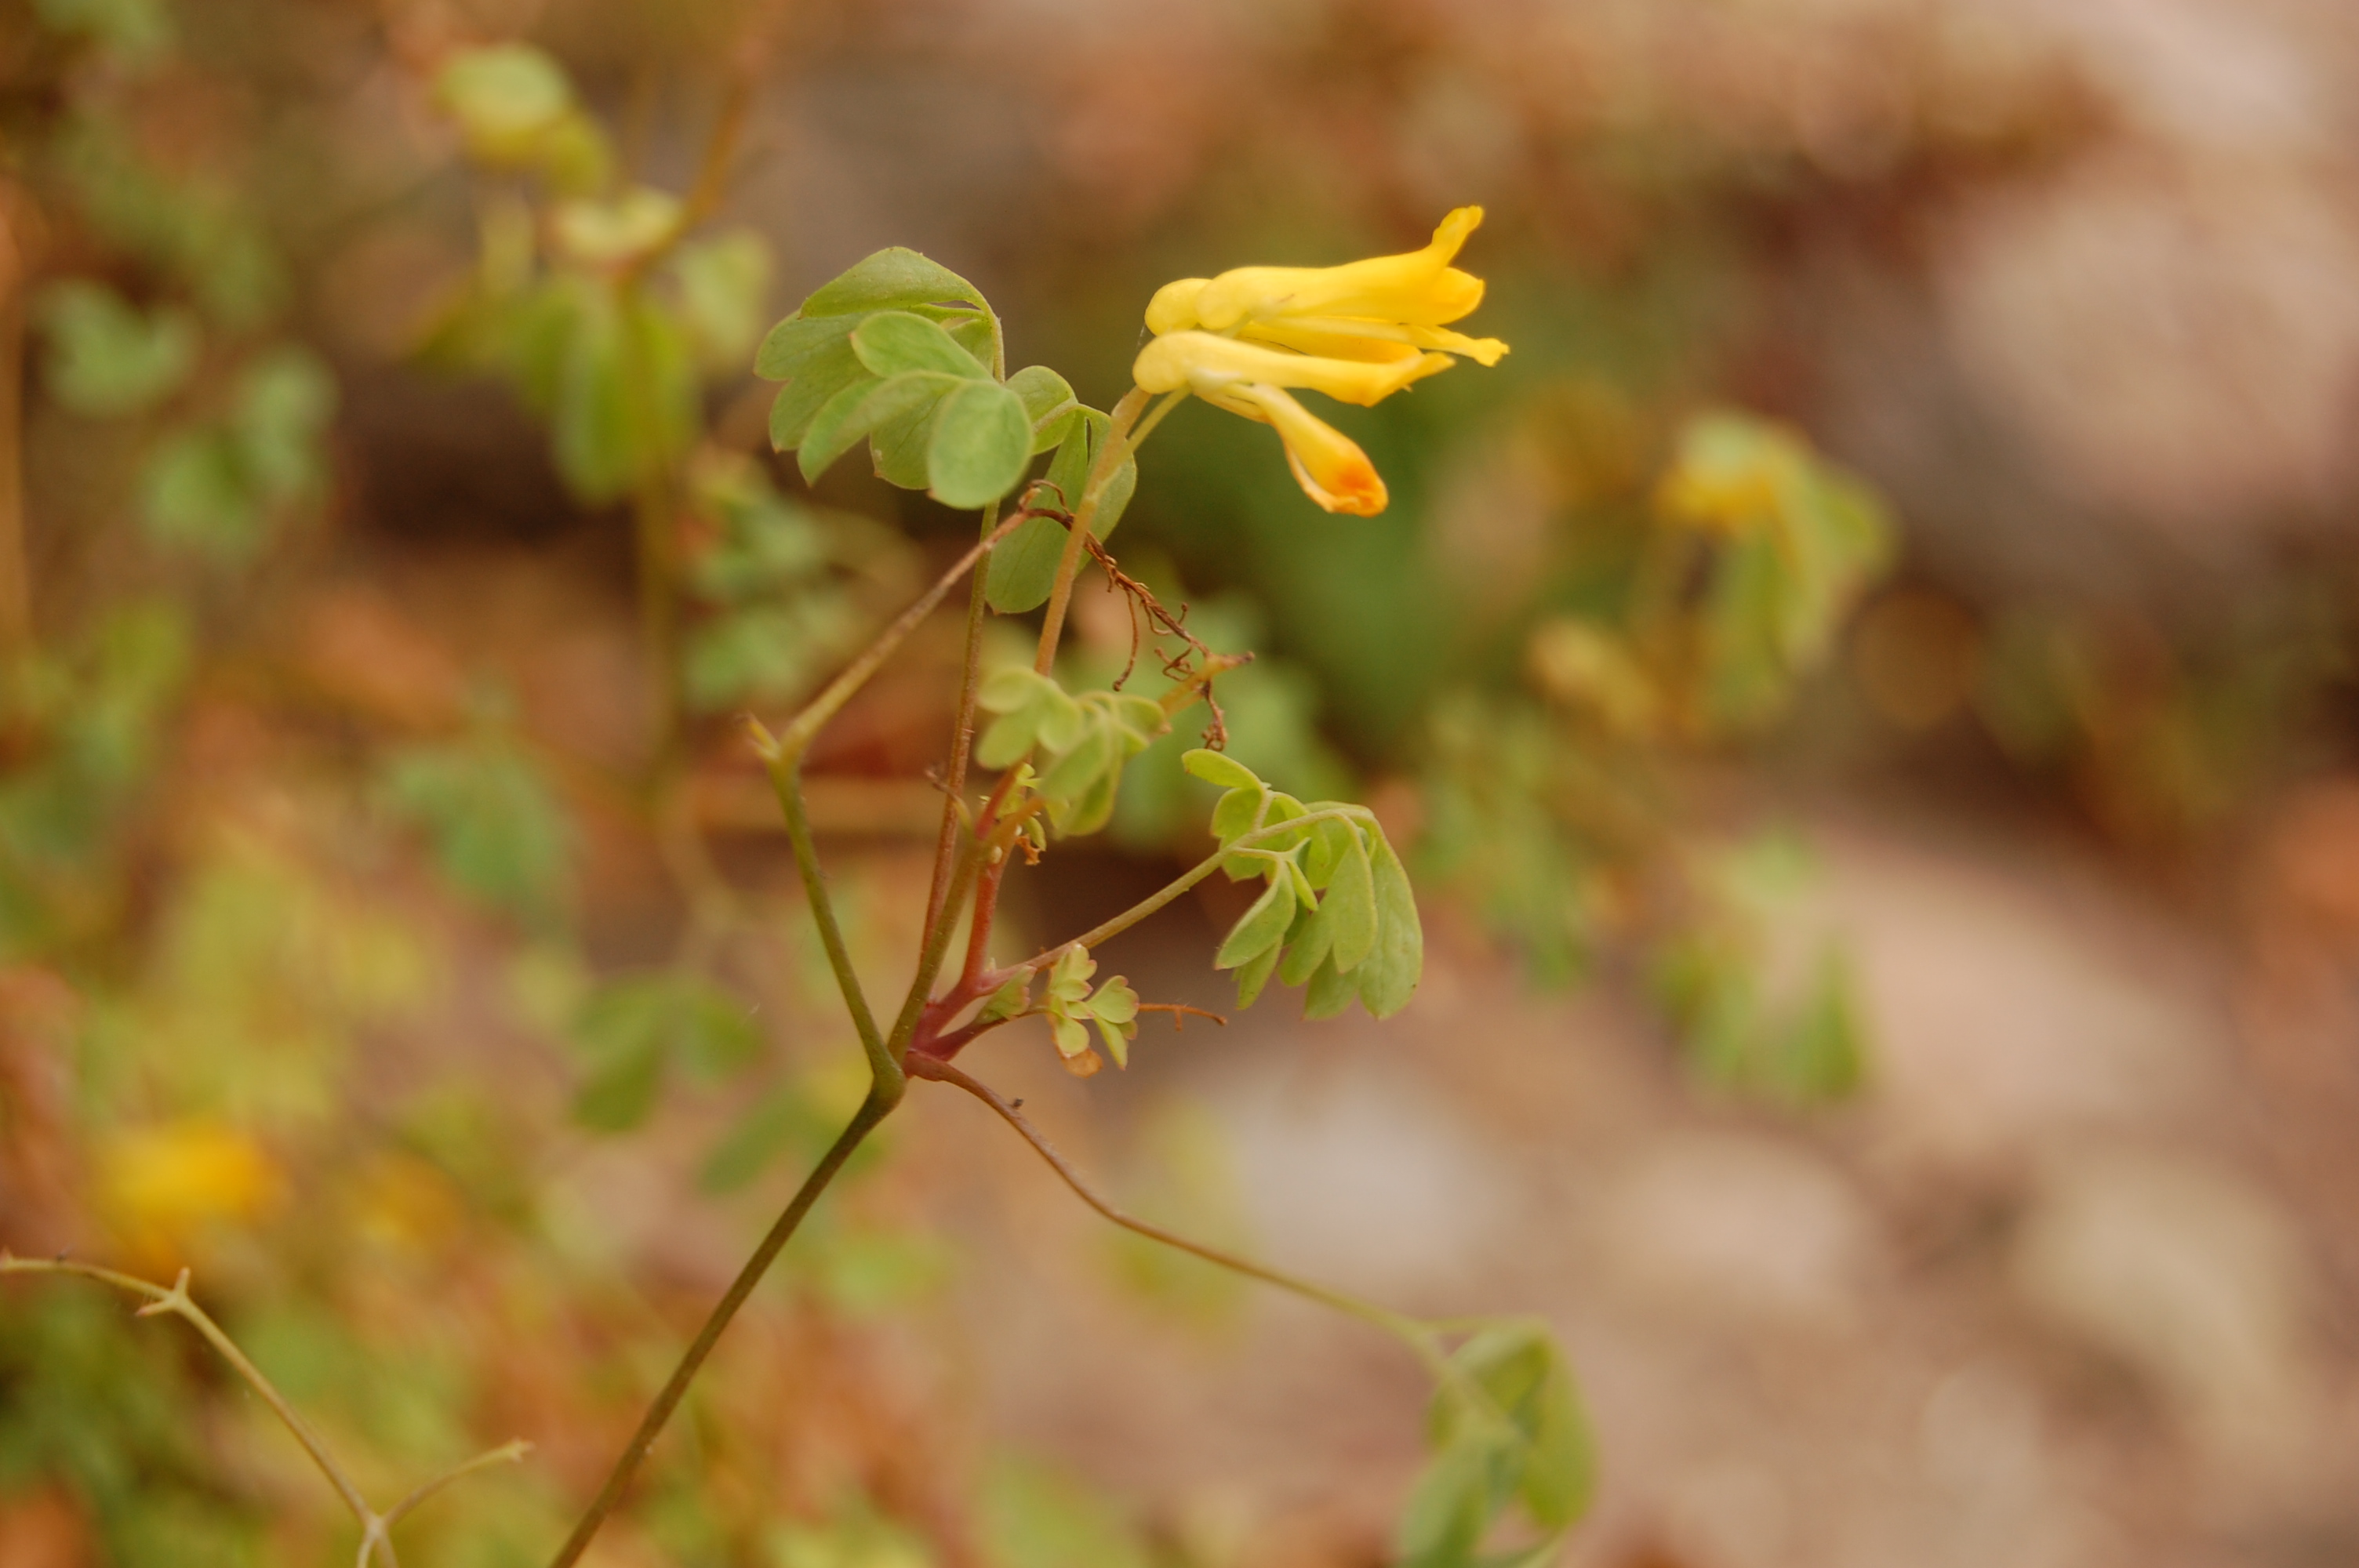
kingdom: Plantae
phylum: Tracheophyta
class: Magnoliopsida
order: Ranunculales
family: Papaveraceae
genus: Pseudofumaria
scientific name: Pseudofumaria lutea
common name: Yellow corydalis
